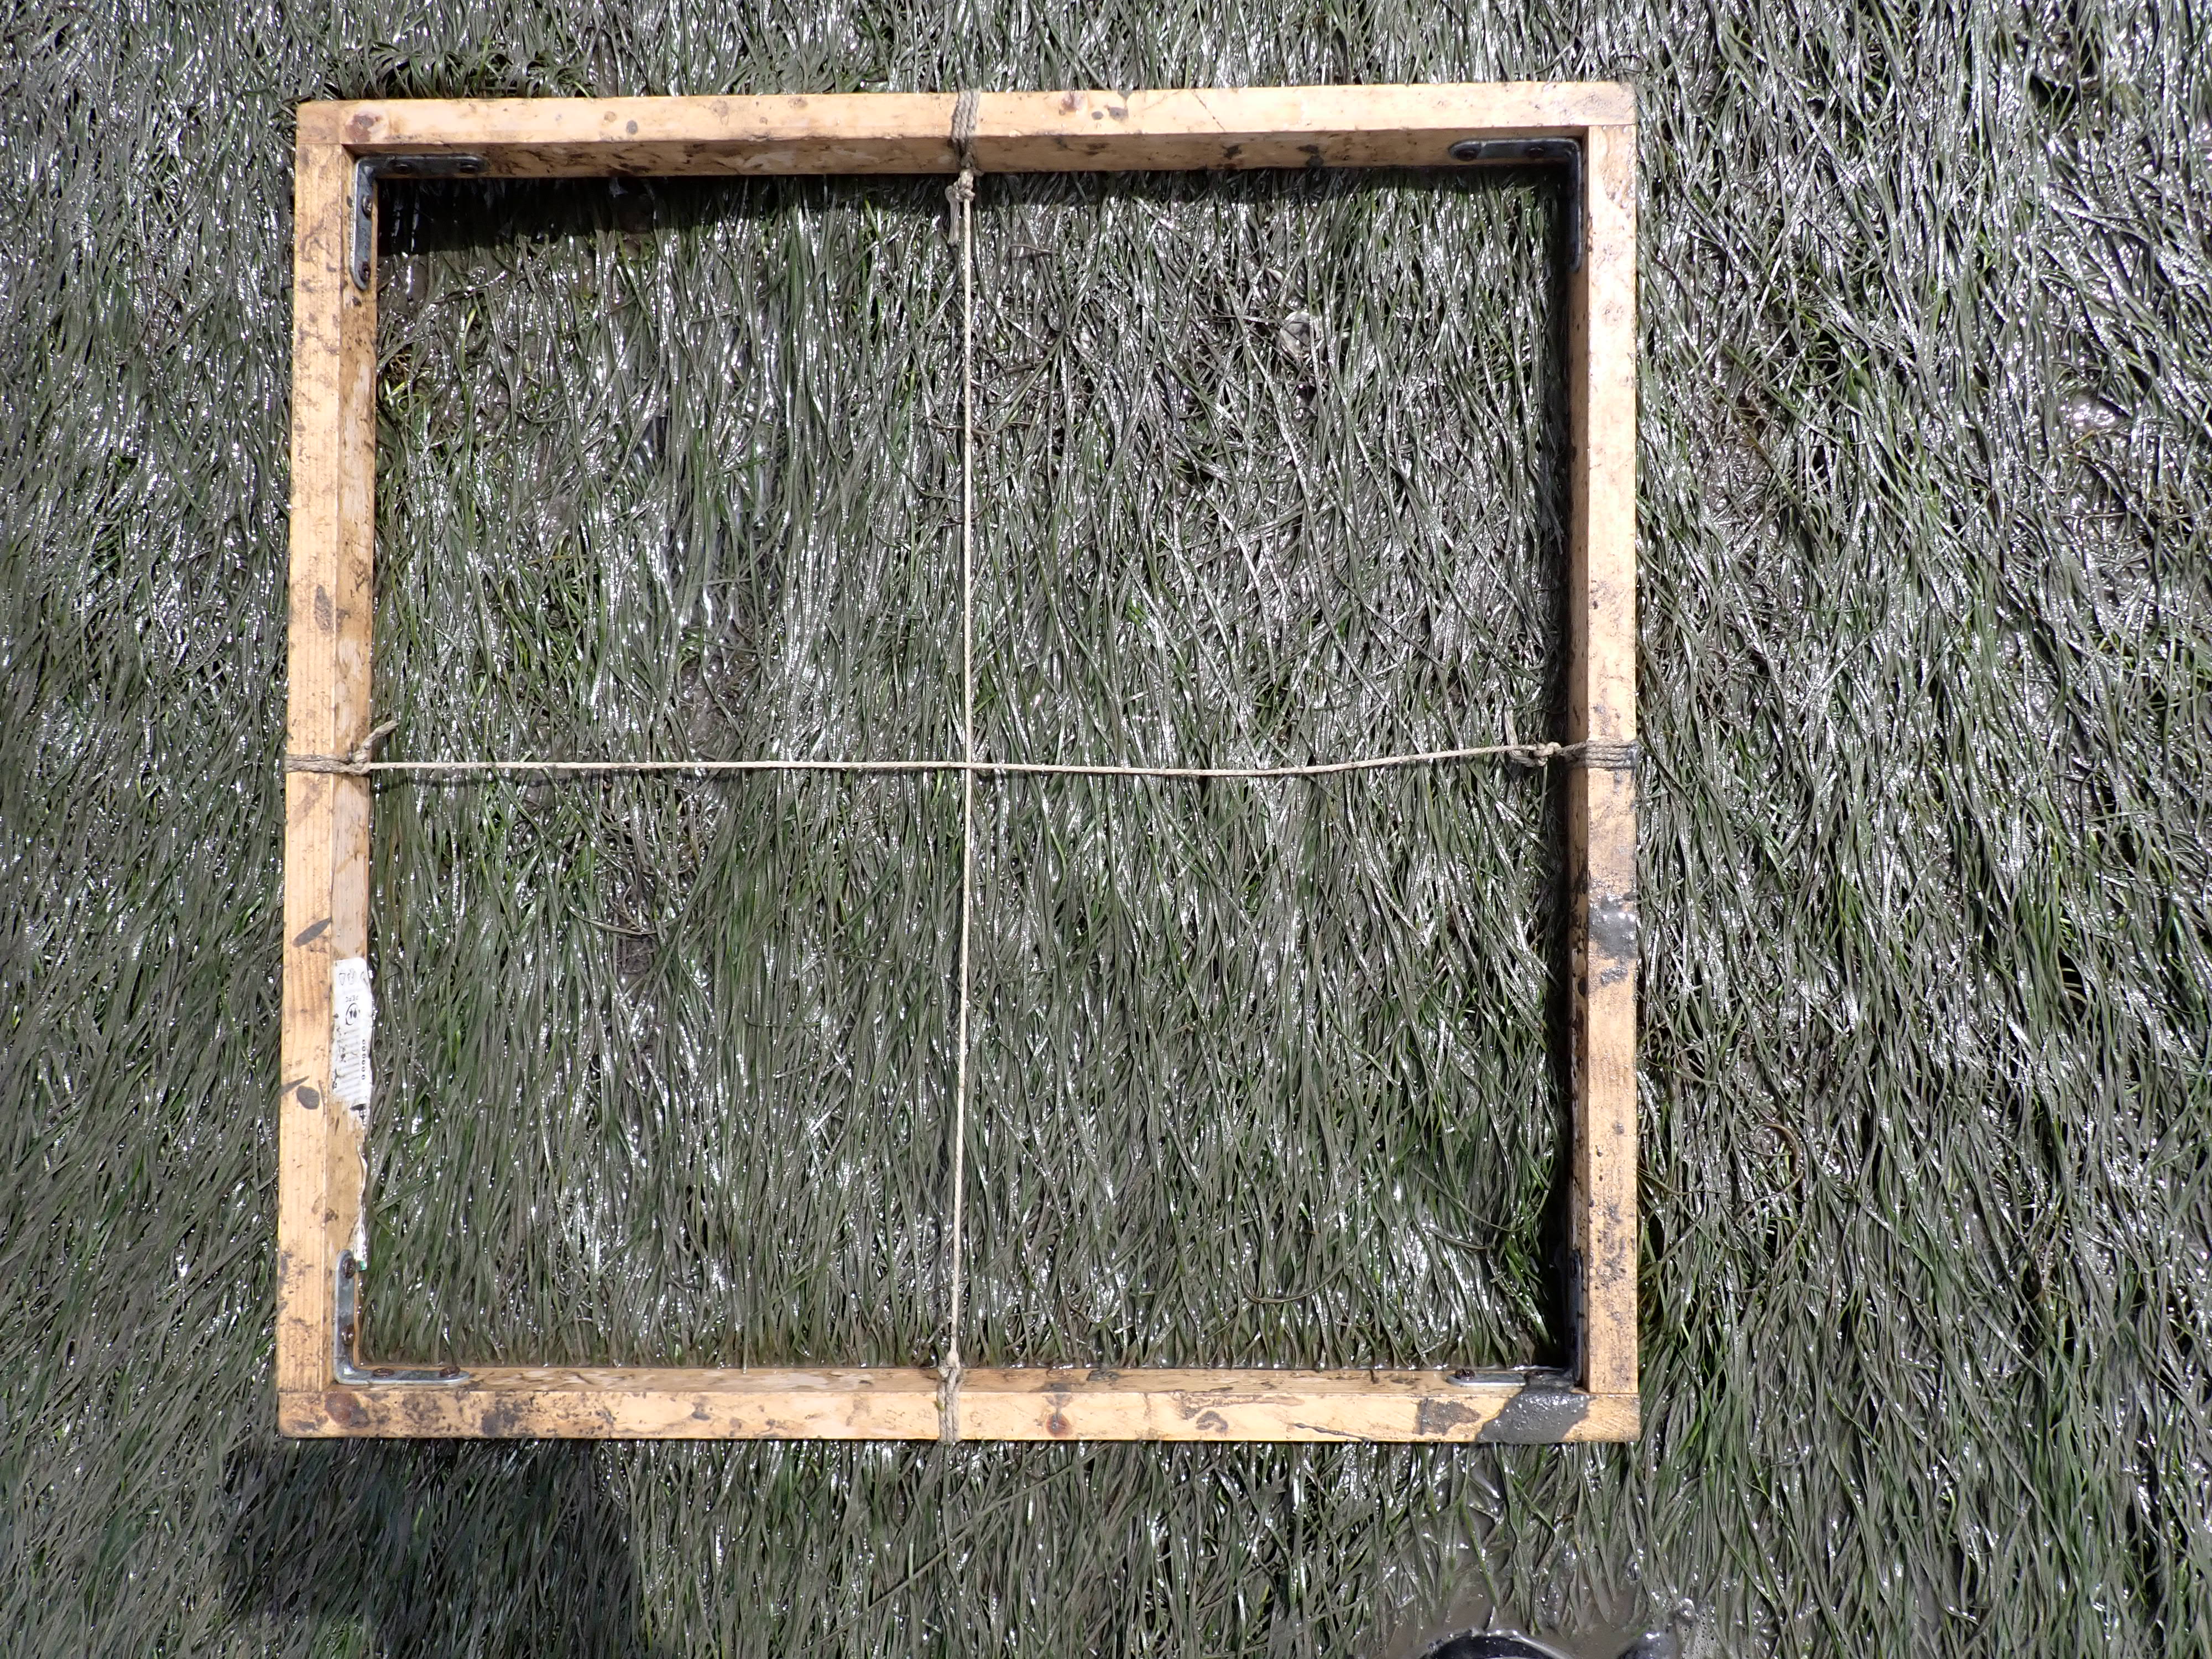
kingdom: Plantae
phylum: Tracheophyta
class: Liliopsida
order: Alismatales
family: Zosteraceae
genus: Zostera
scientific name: Zostera noltii
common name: Dwarf eelgrass
